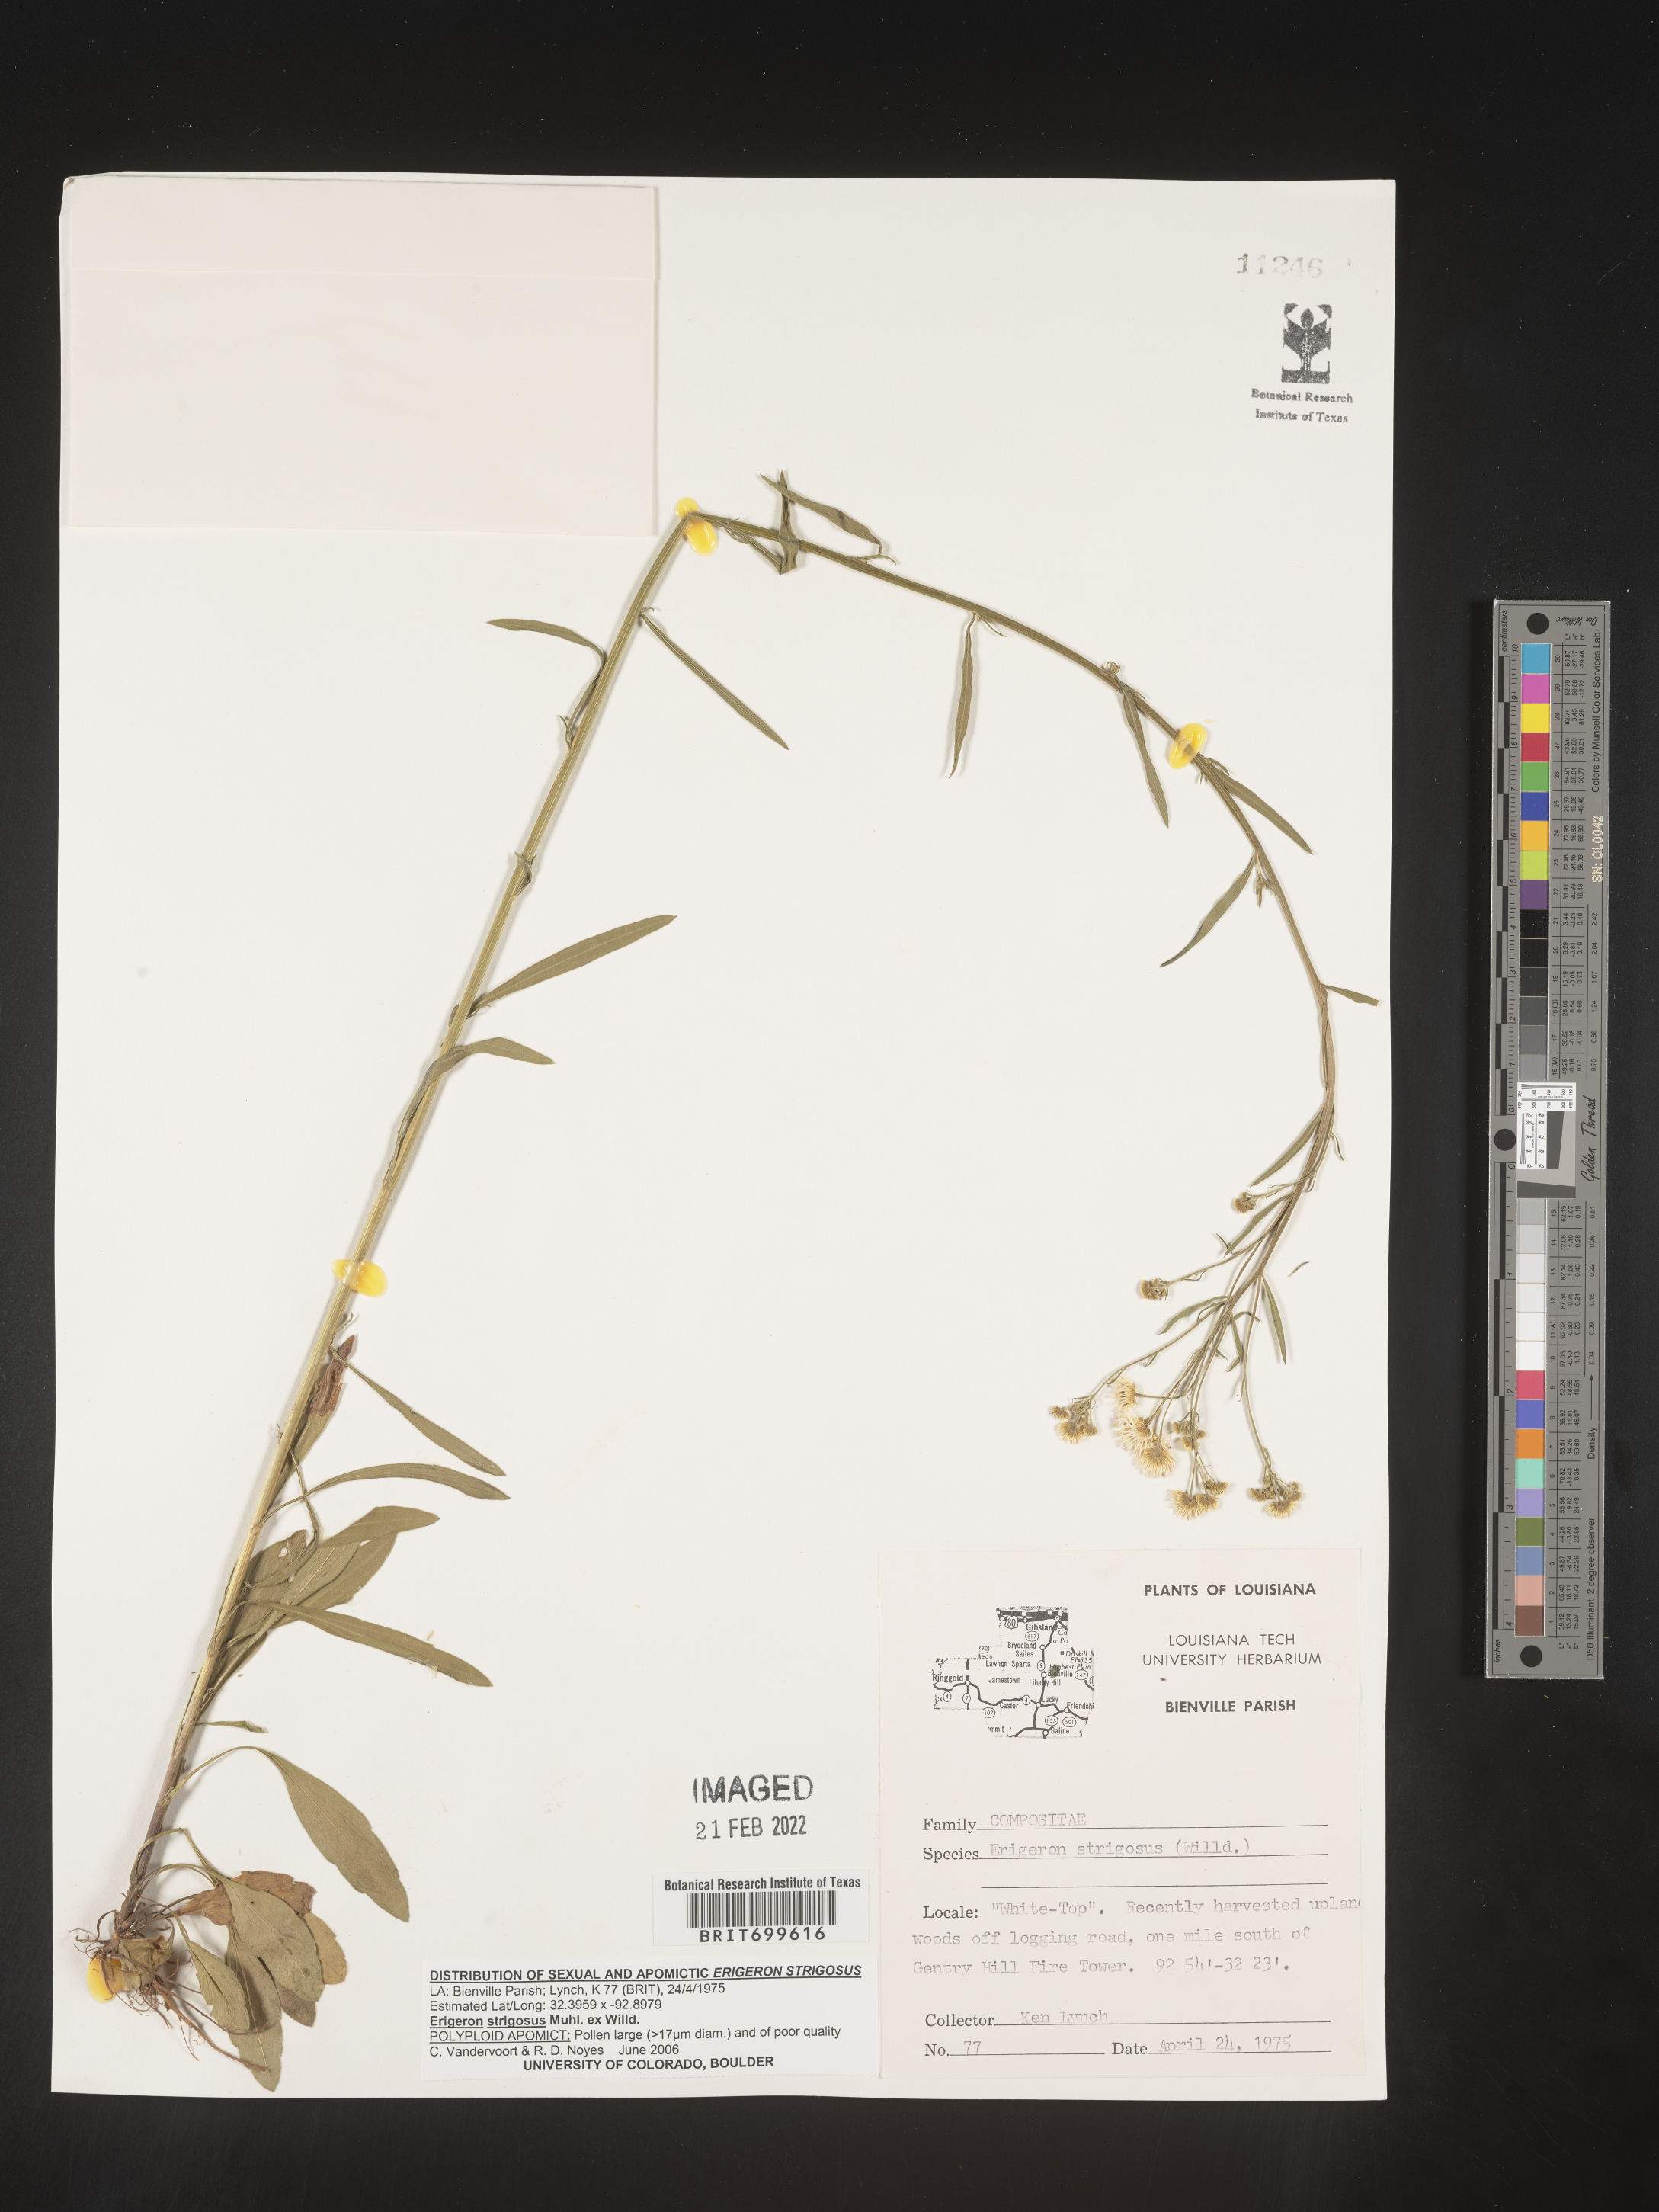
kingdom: Plantae
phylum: Tracheophyta
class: Magnoliopsida
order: Asterales
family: Asteraceae
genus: Erigeron
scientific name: Erigeron strigosus
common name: Common eastern fleabane
